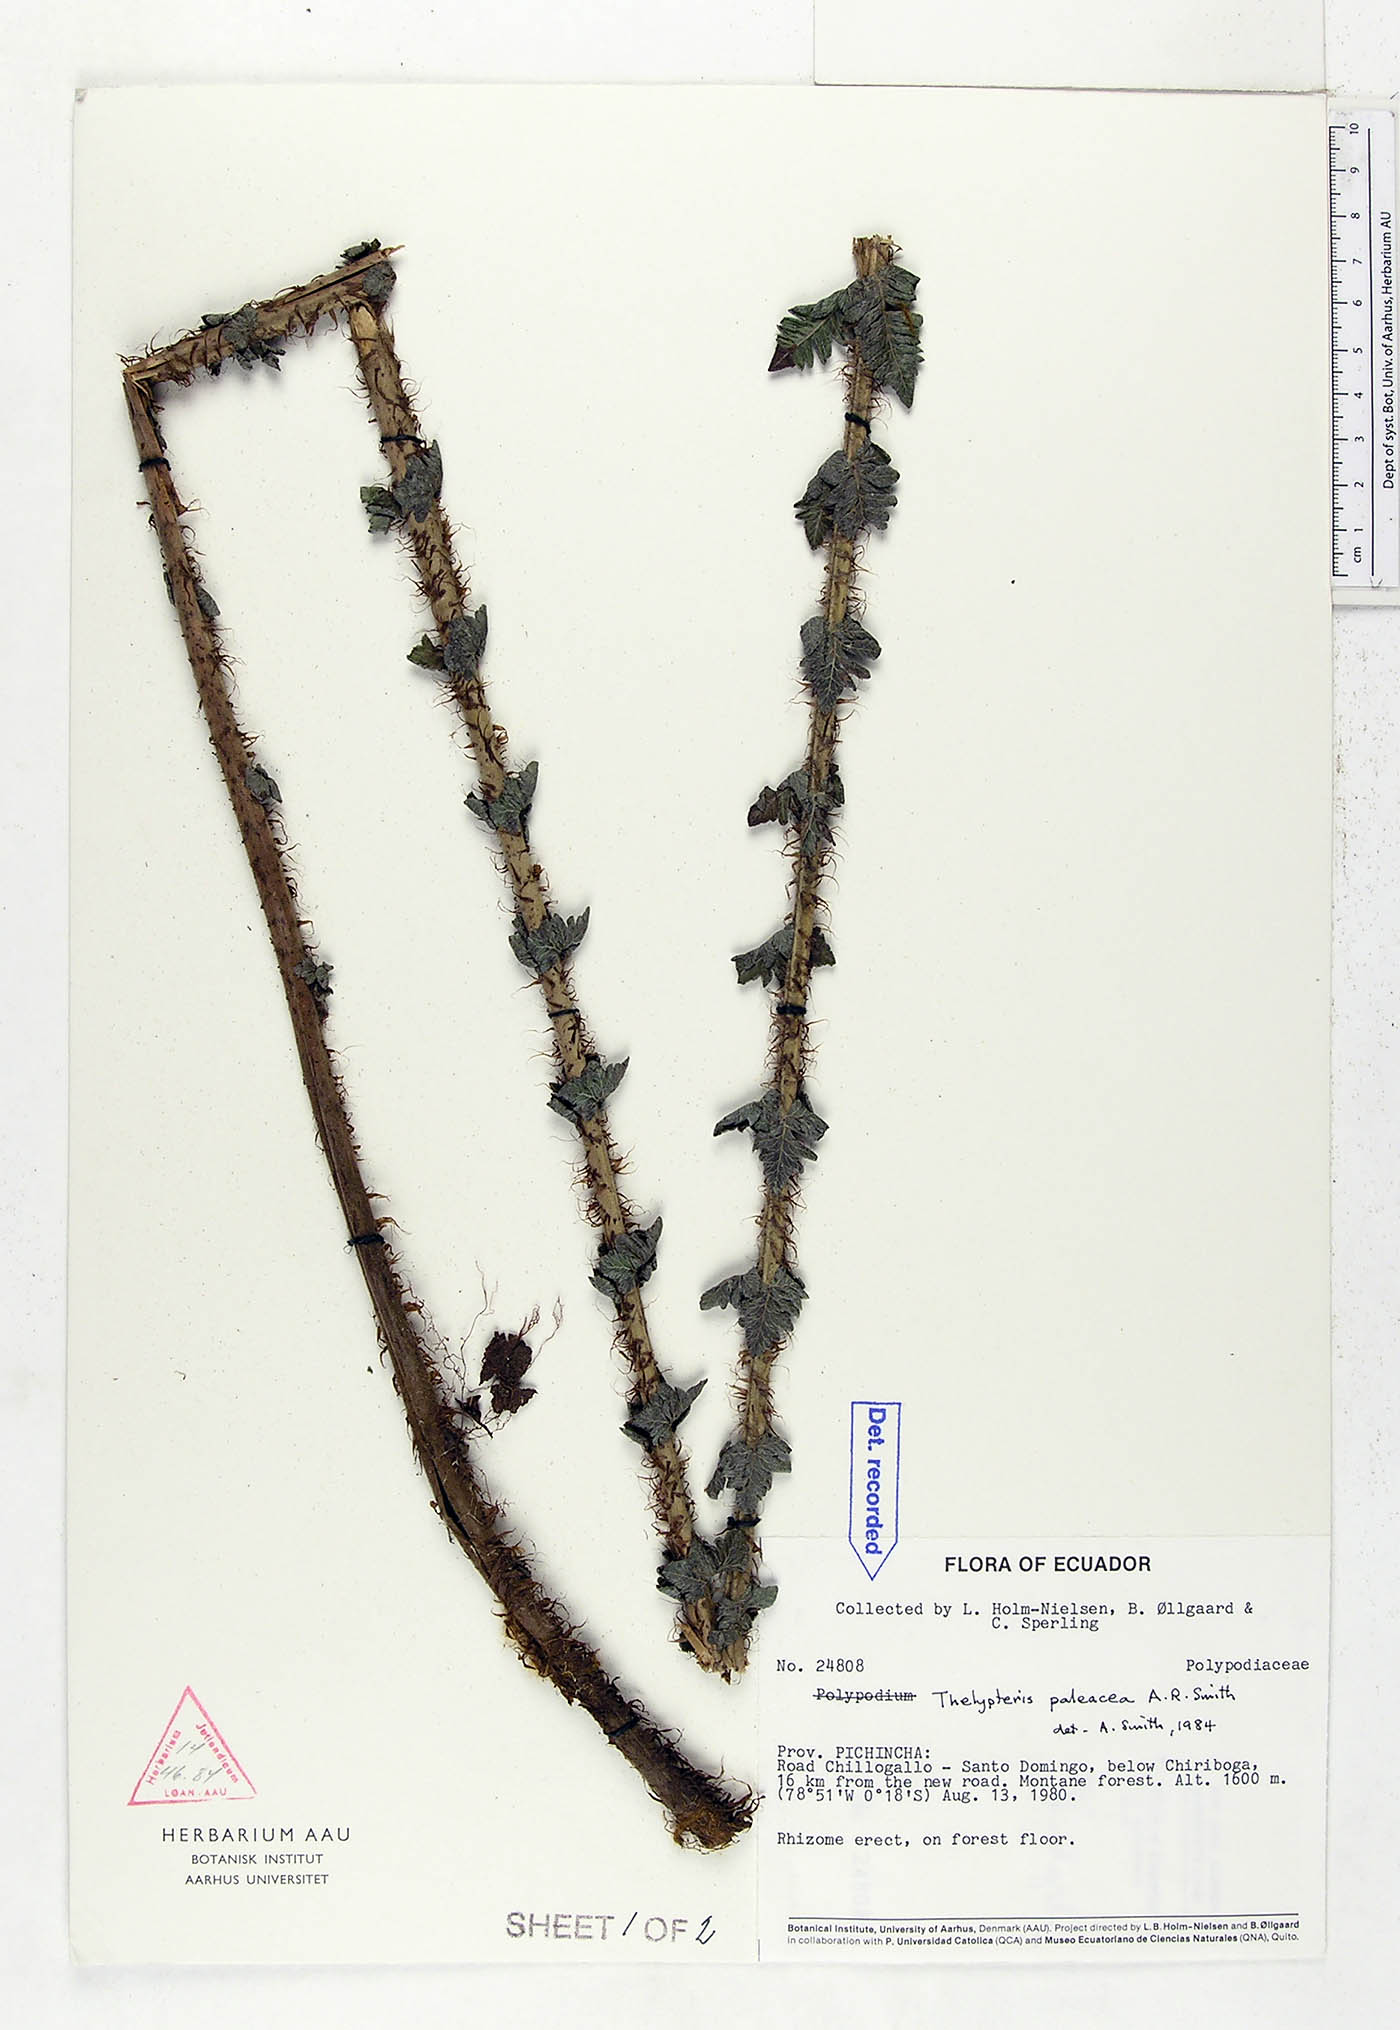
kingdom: Plantae
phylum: Tracheophyta
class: Polypodiopsida
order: Polypodiales
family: Thelypteridaceae
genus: Amauropelta
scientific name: Amauropelta paleacea
